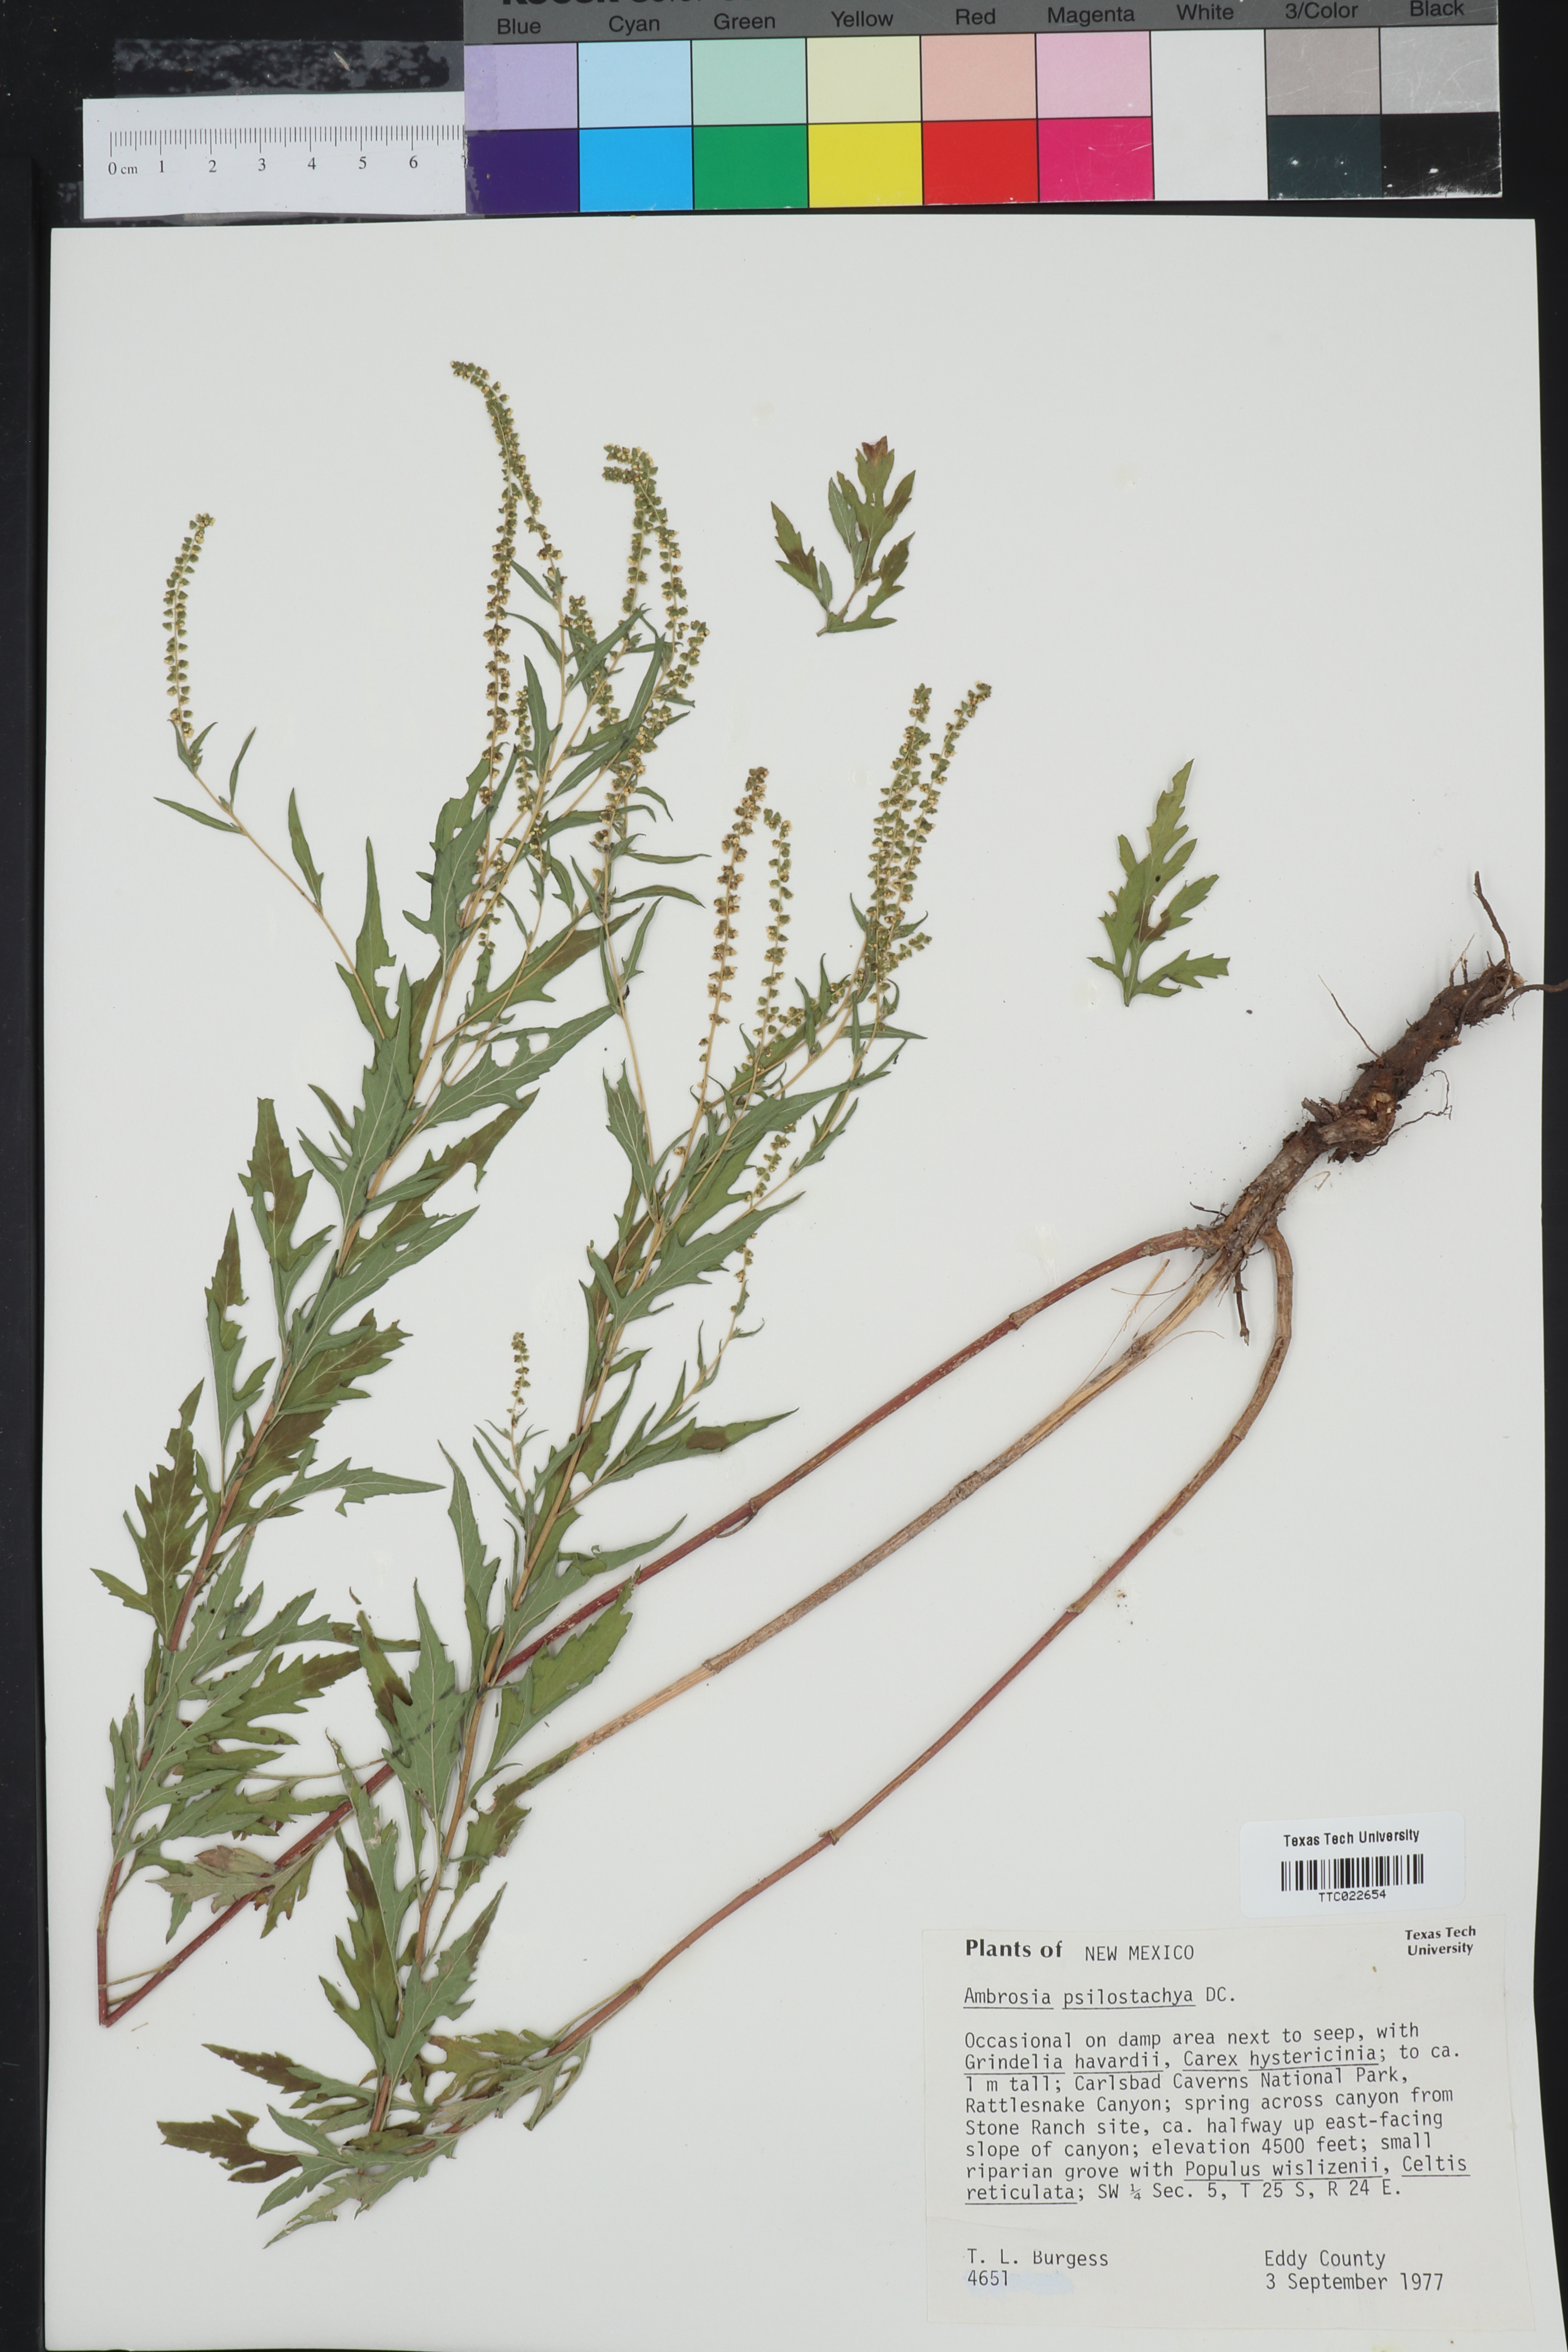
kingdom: Plantae
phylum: Tracheophyta
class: Magnoliopsida
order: Asterales
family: Asteraceae
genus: Ambrosia
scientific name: Ambrosia psilostachya
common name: Perennial ragweed
